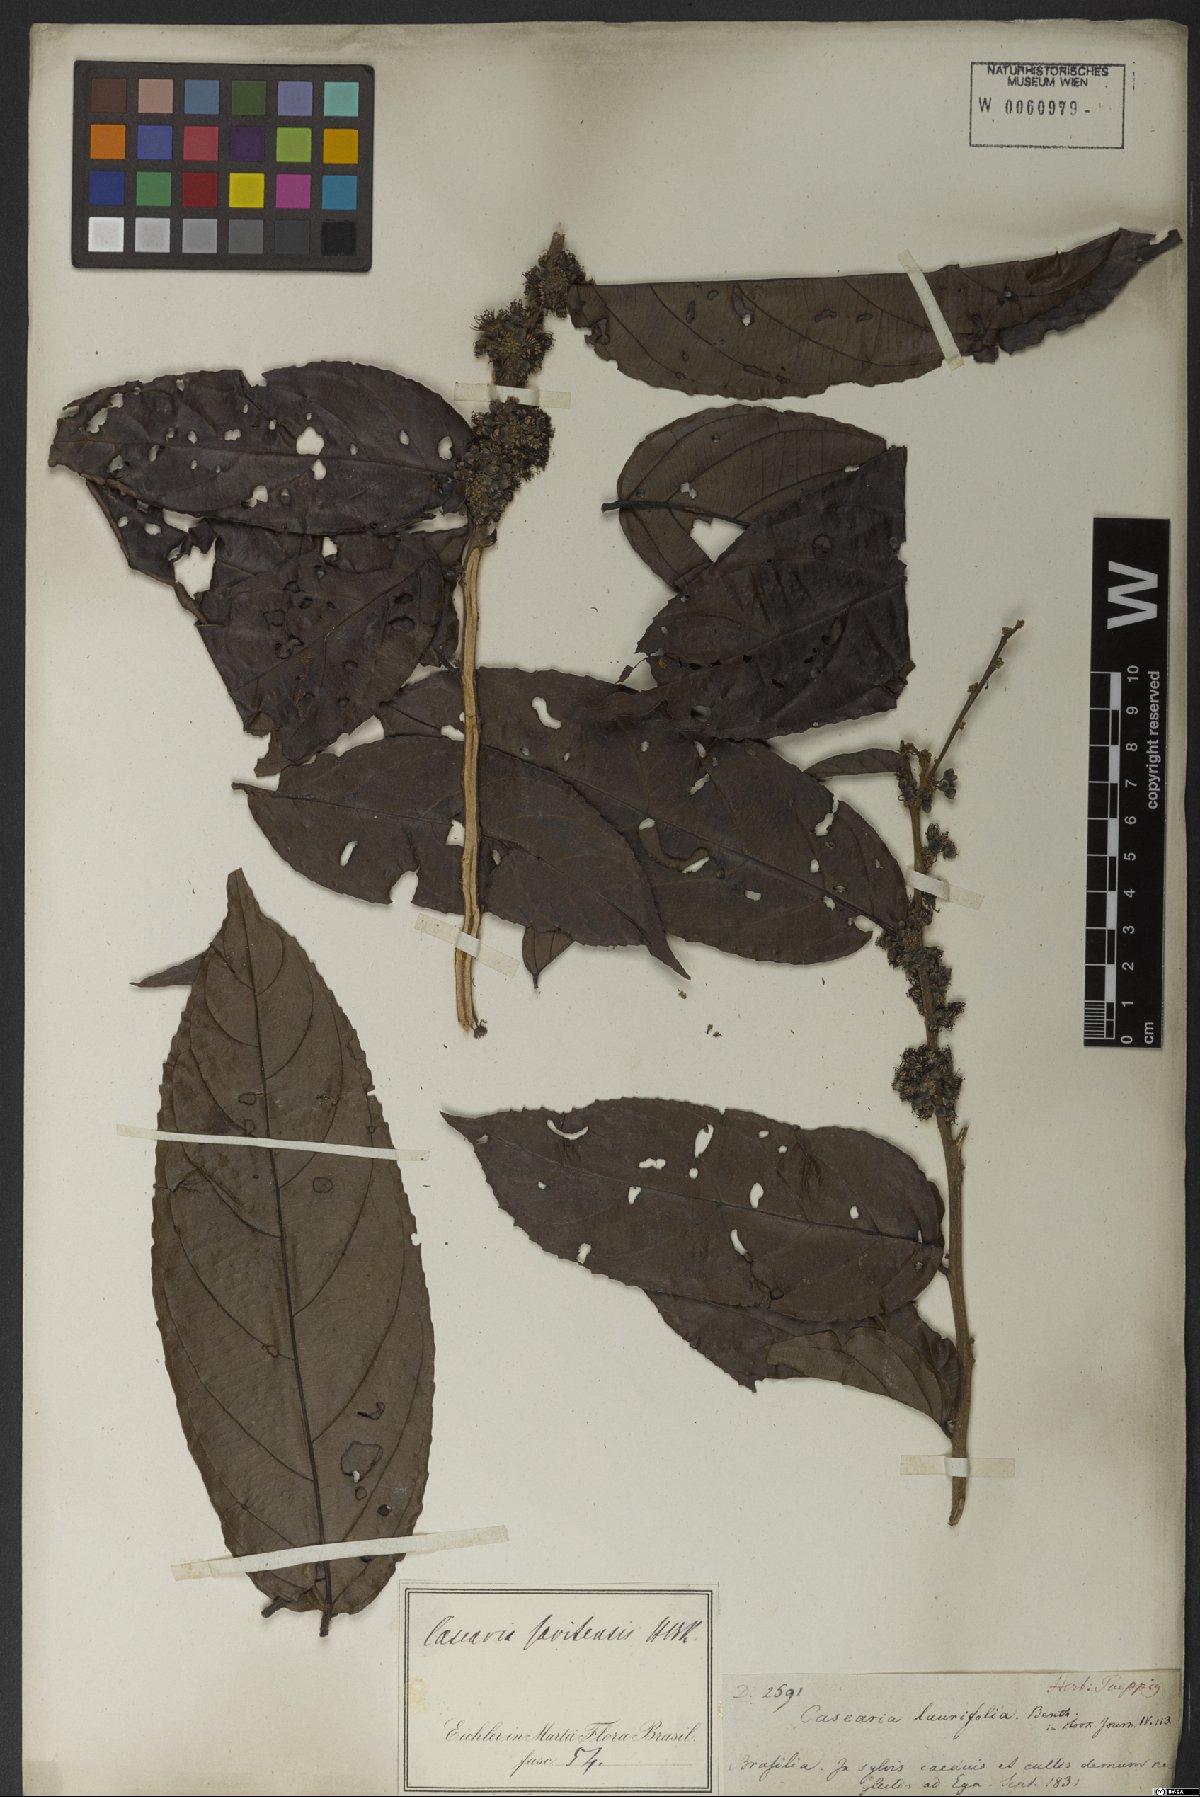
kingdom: Plantae
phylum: Tracheophyta
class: Magnoliopsida
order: Malpighiales
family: Salicaceae
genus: Piparea
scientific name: Piparea multiflora
